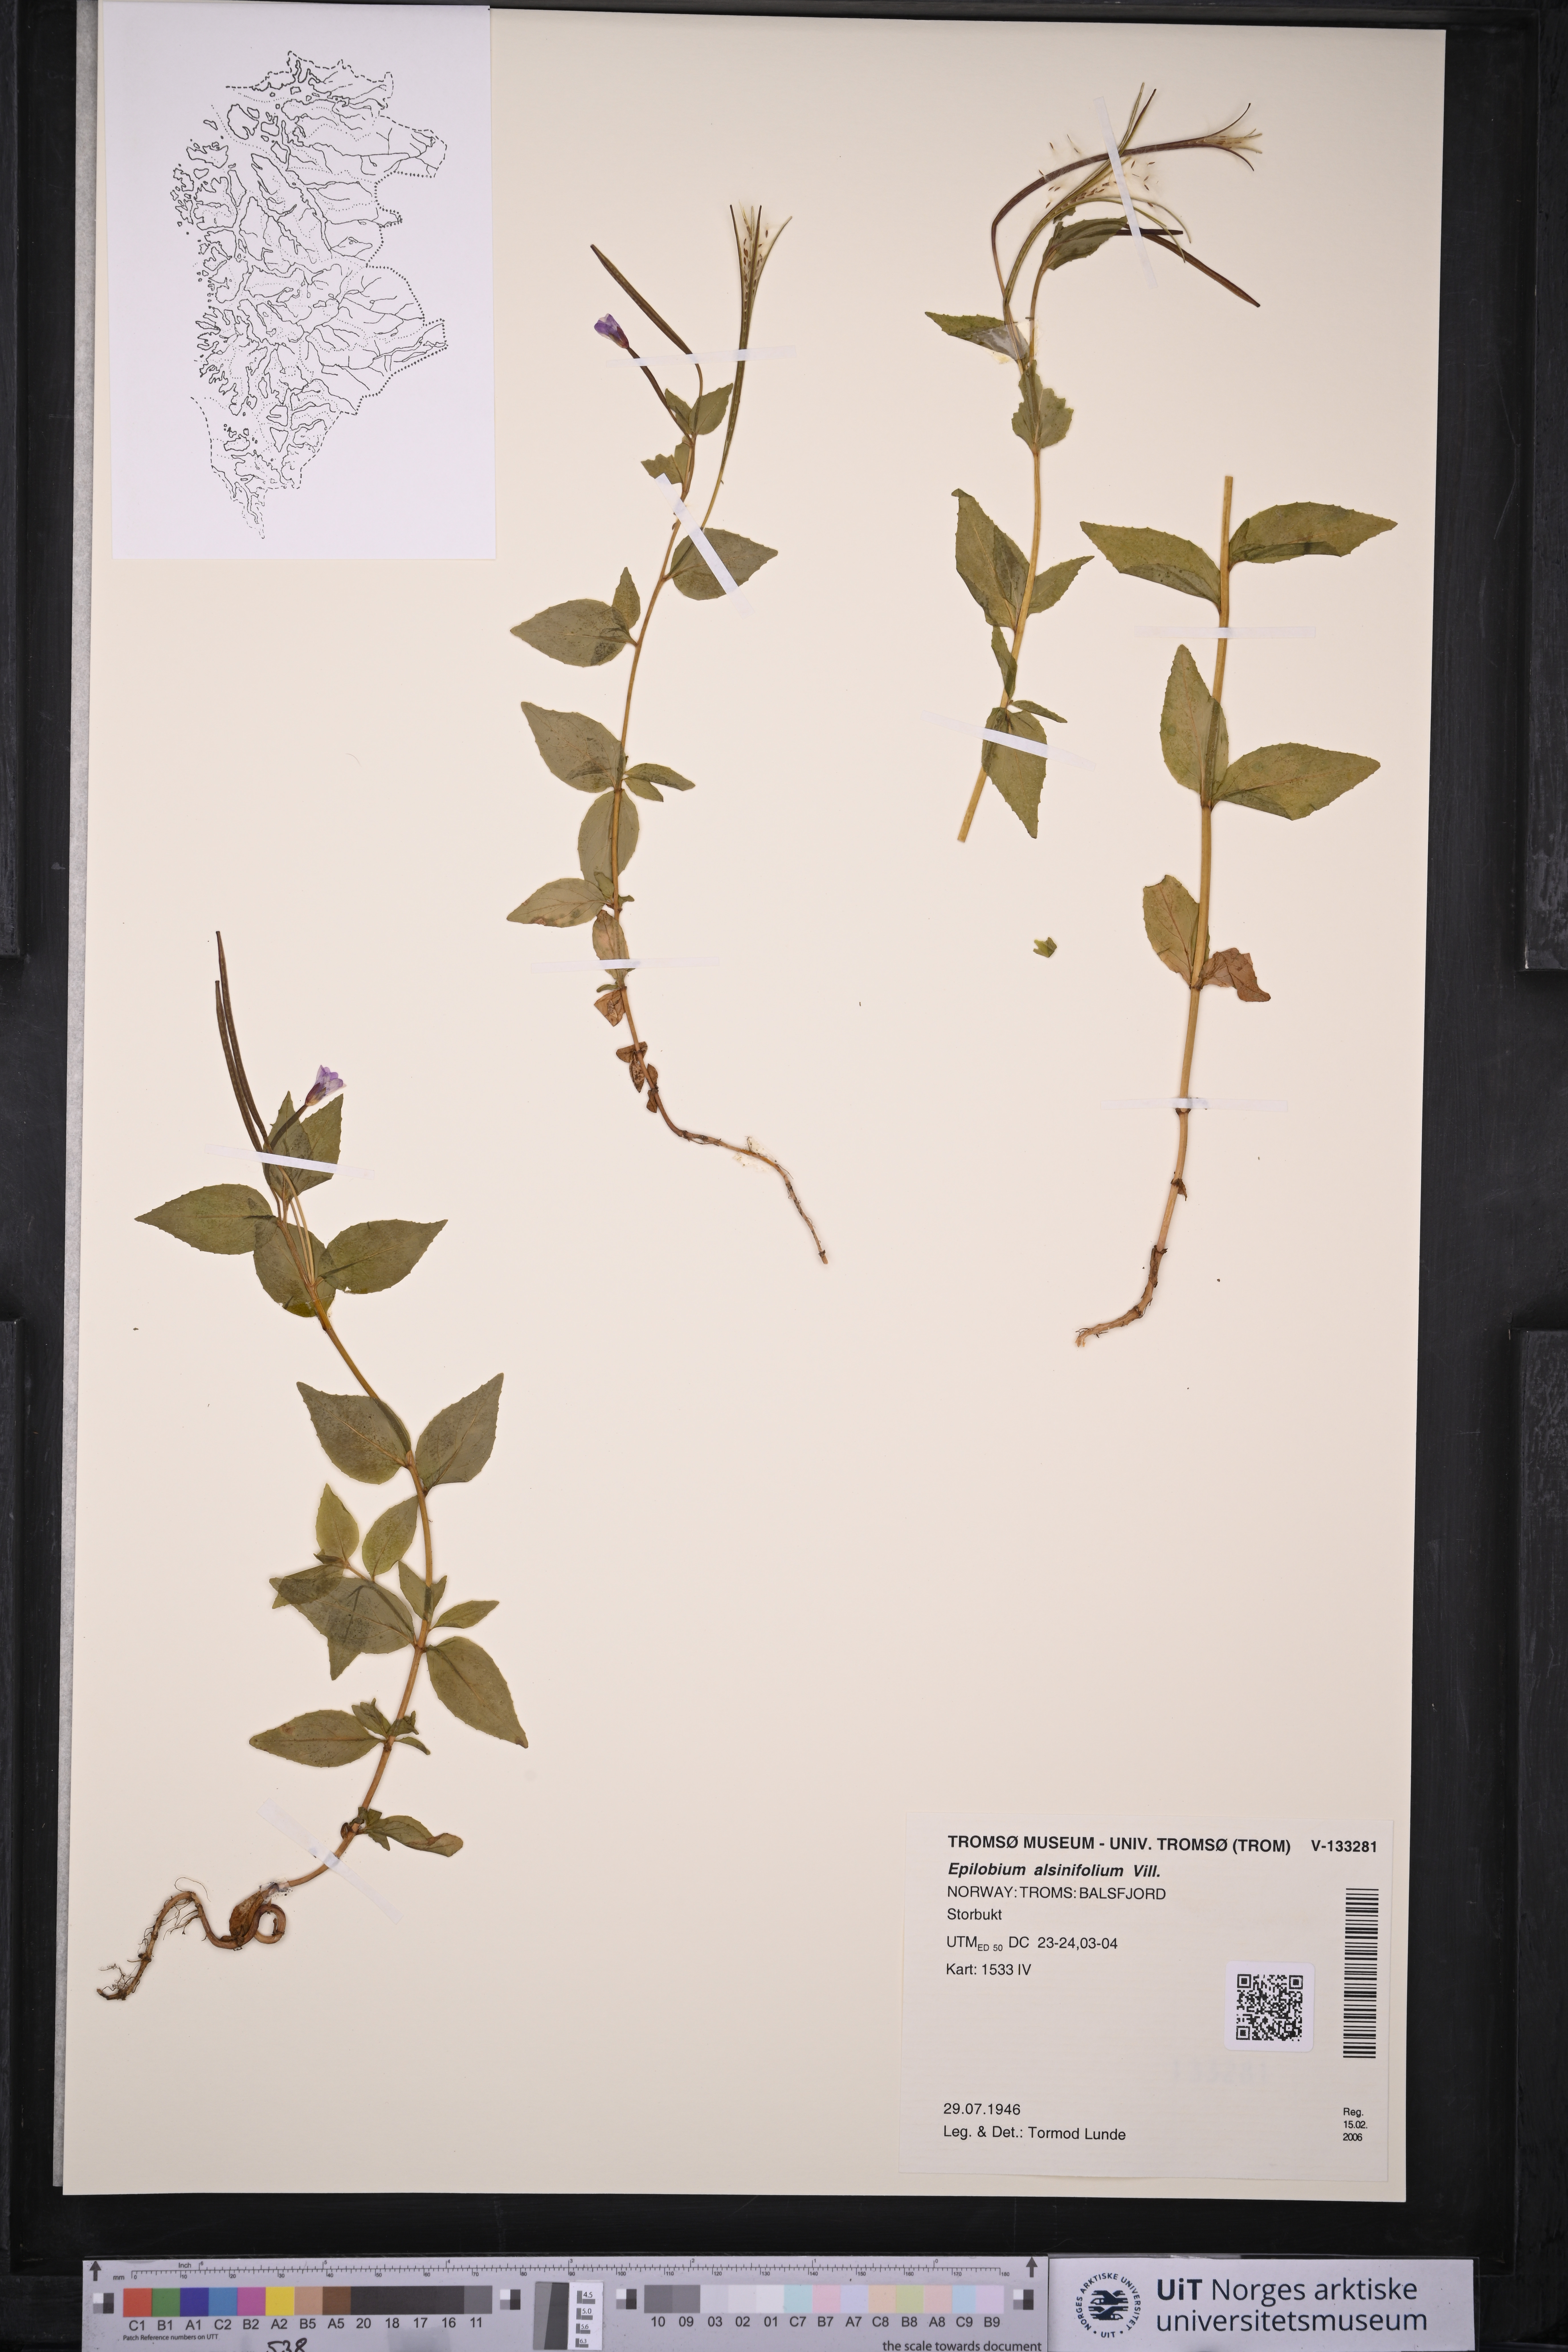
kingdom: Plantae
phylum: Tracheophyta
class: Magnoliopsida
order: Myrtales
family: Onagraceae
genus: Epilobium
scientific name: Epilobium alsinifolium
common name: Chickweed willowherb
